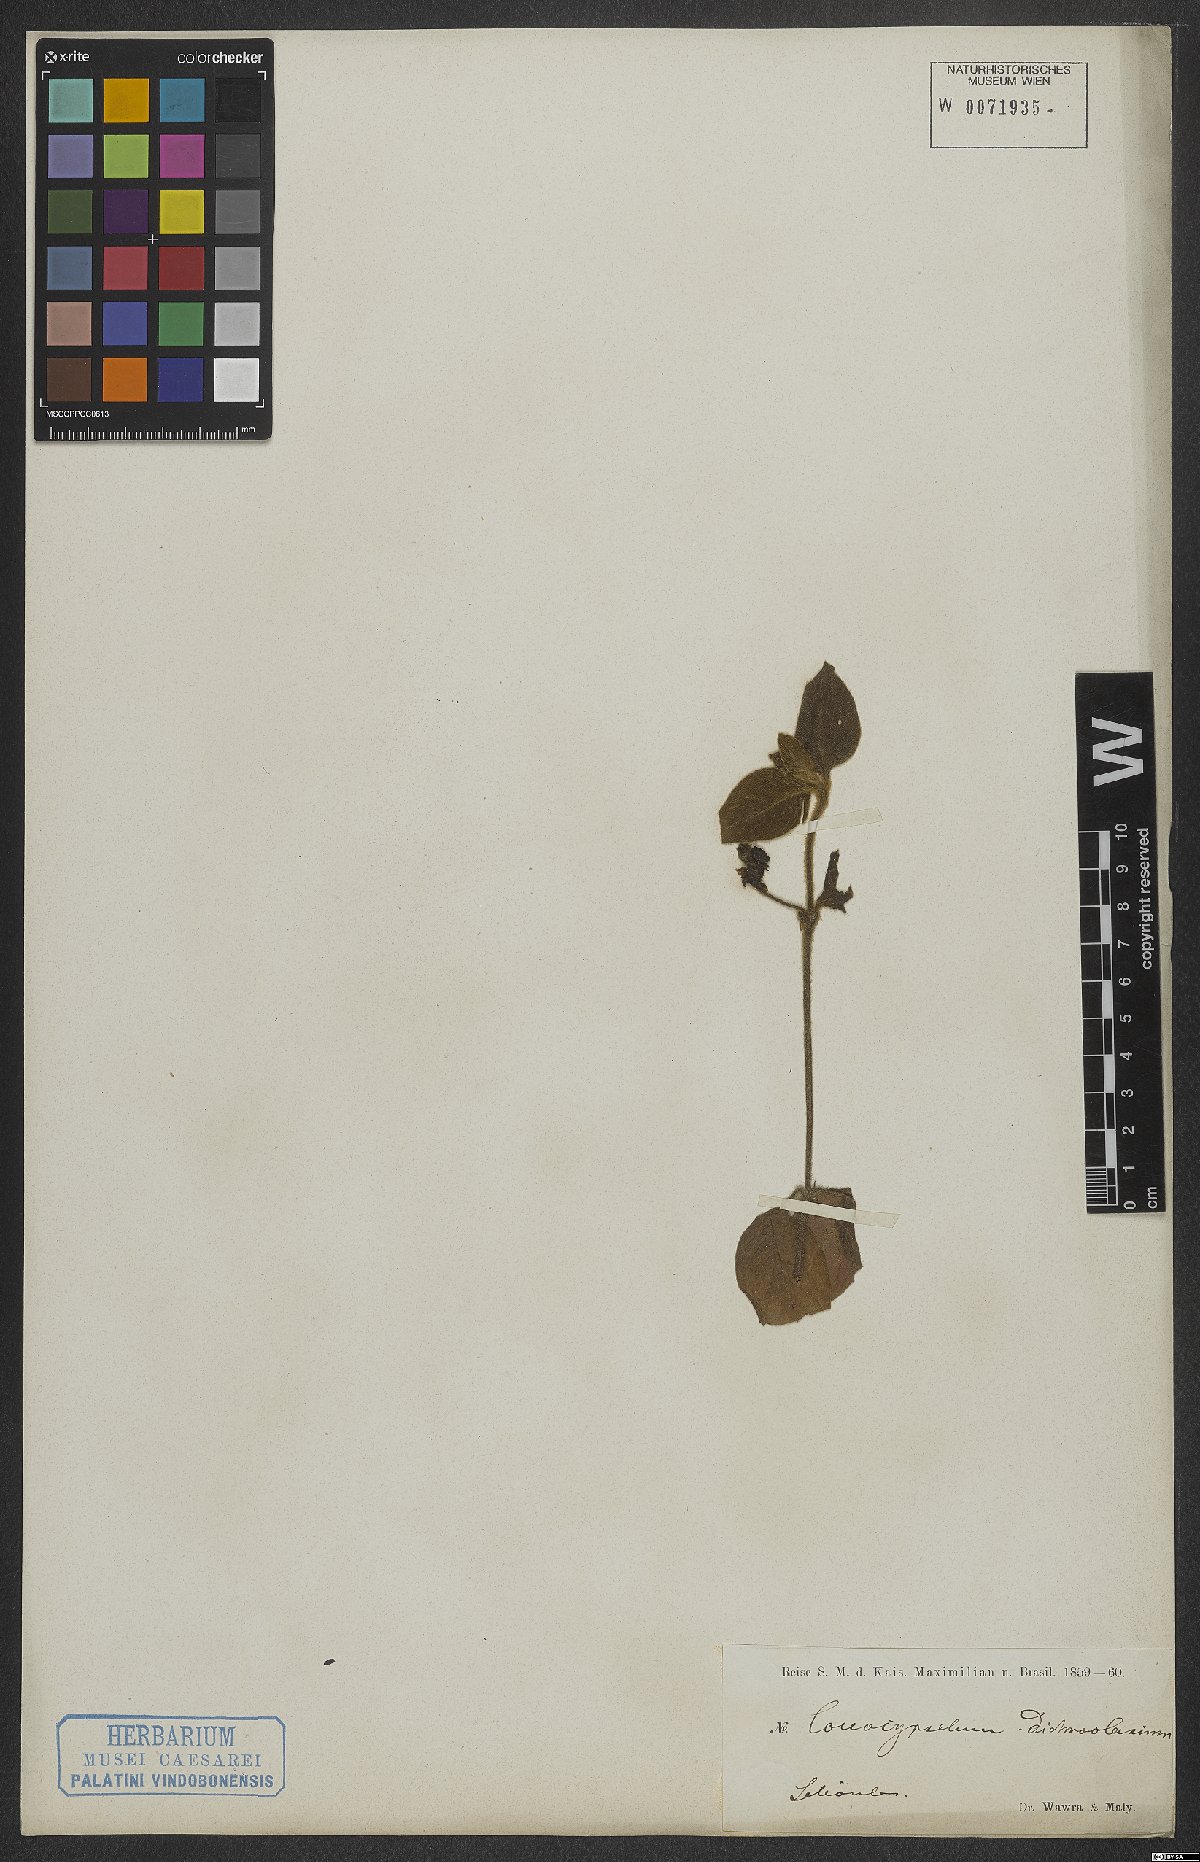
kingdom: Plantae
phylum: Tracheophyta
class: Magnoliopsida
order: Gentianales
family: Rubiaceae
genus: Coccocypselum
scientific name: Coccocypselum lanceolatum
